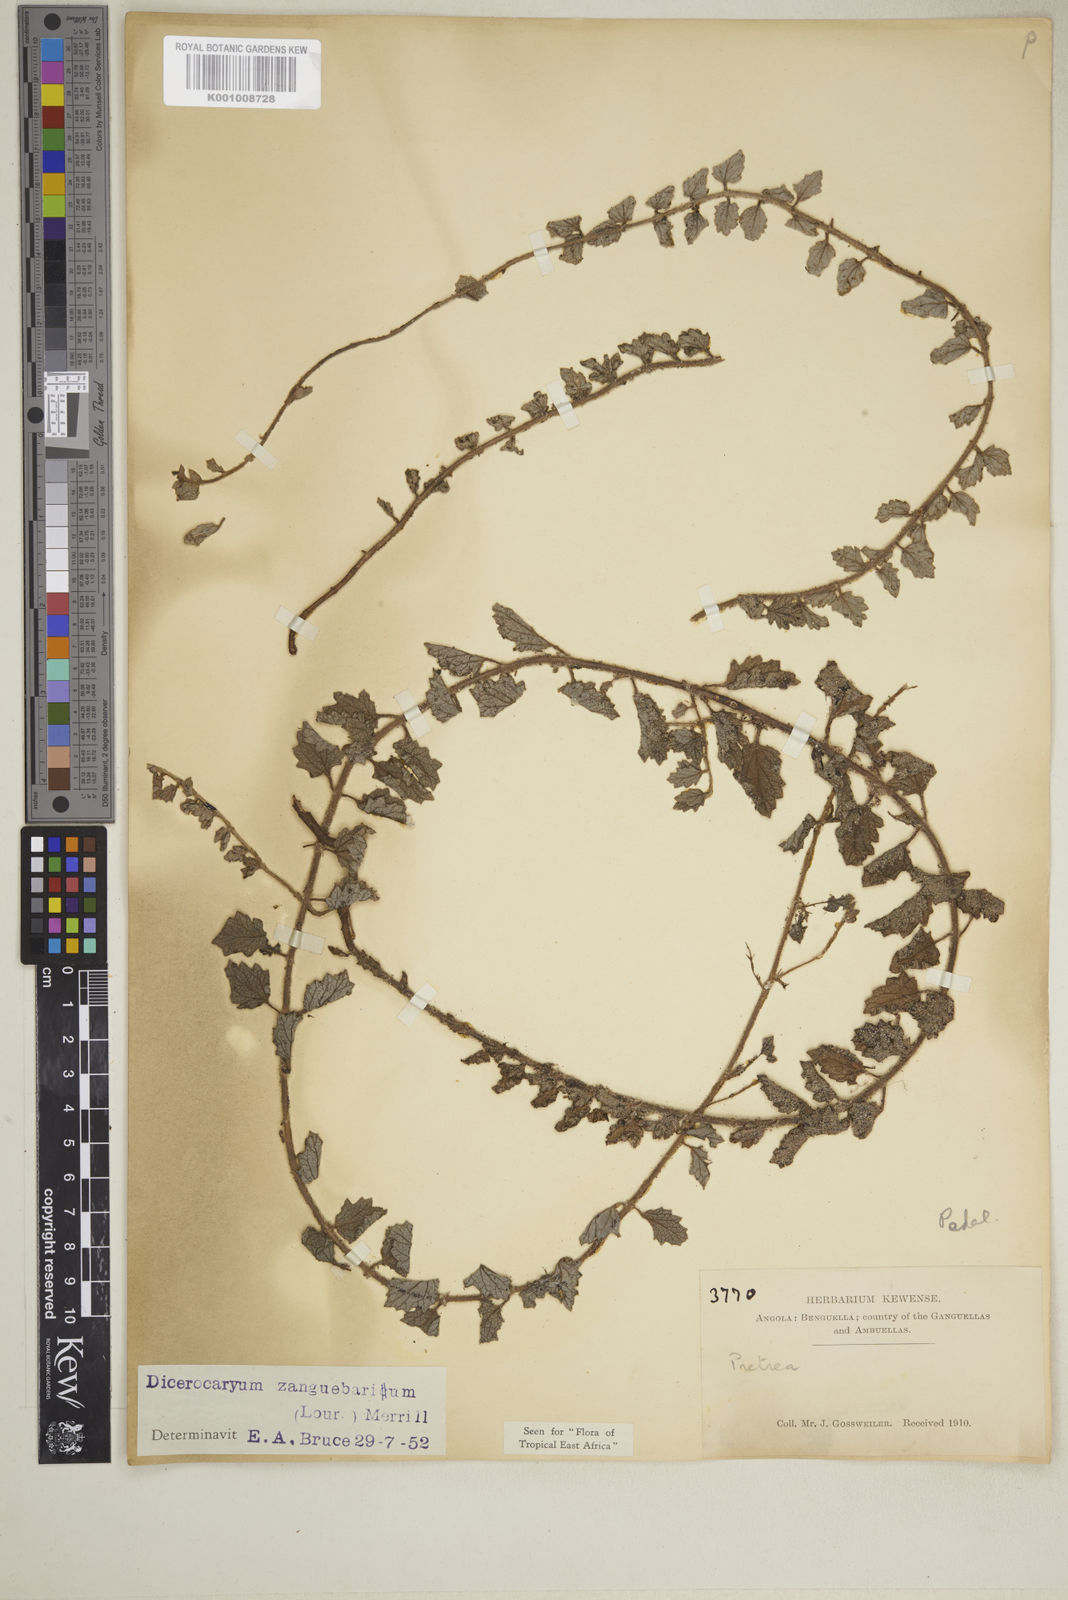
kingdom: Plantae
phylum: Tracheophyta
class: Magnoliopsida
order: Lamiales
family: Pedaliaceae
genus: Dicerocaryum
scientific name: Dicerocaryum eriocarpum
